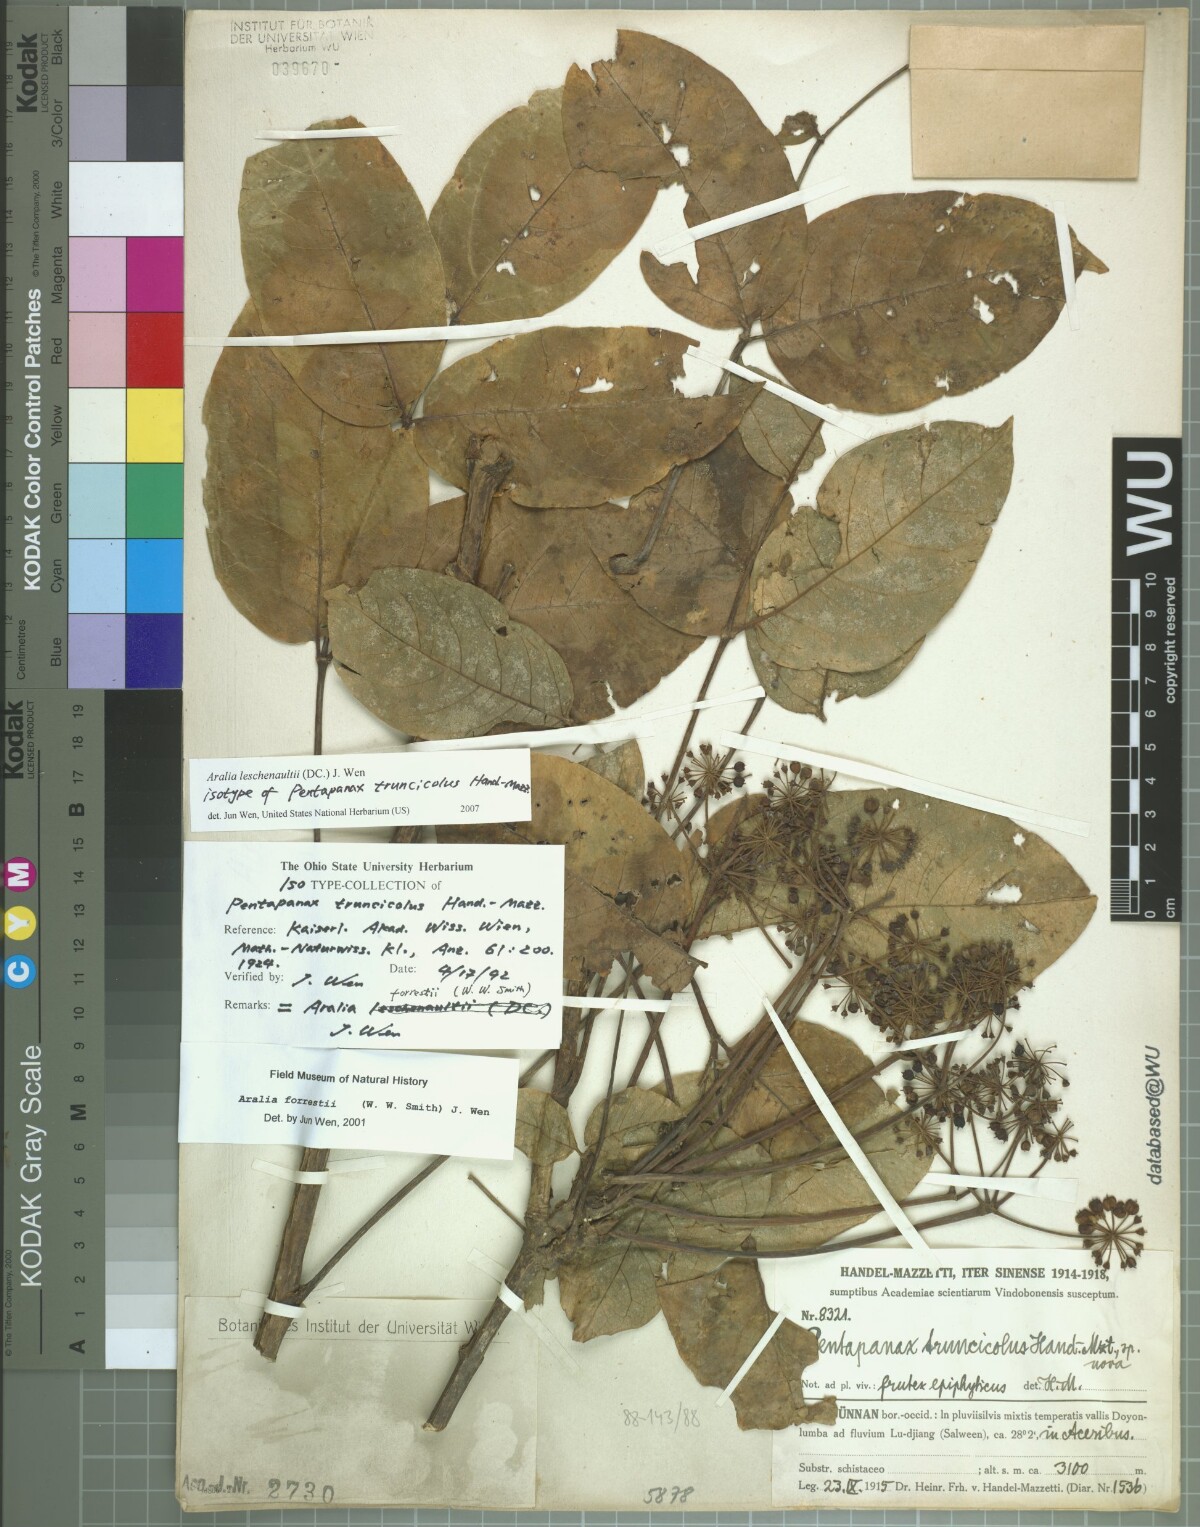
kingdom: Plantae
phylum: Tracheophyta
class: Magnoliopsida
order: Apiales
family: Araliaceae
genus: Aralia
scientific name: Aralia leschenaultii
